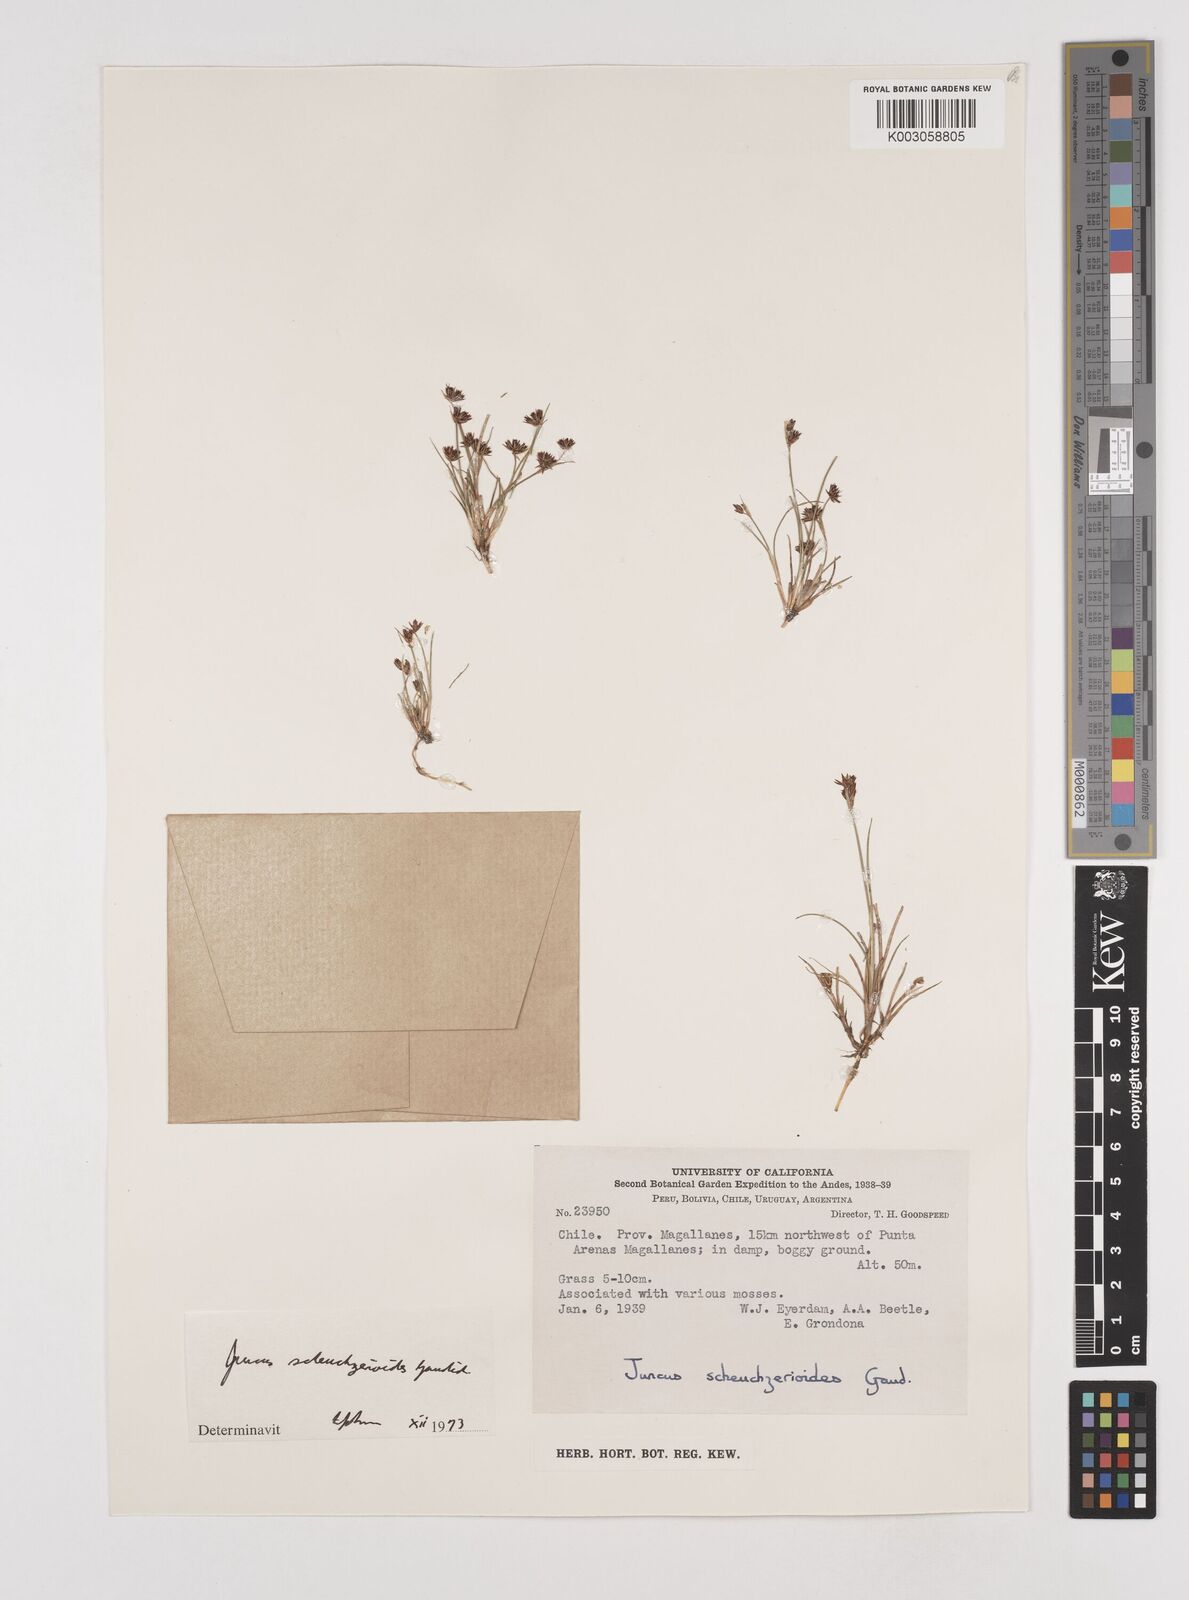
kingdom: Plantae
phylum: Tracheophyta
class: Liliopsida
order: Poales
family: Juncaceae
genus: Juncus
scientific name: Juncus scheuchzerioides
